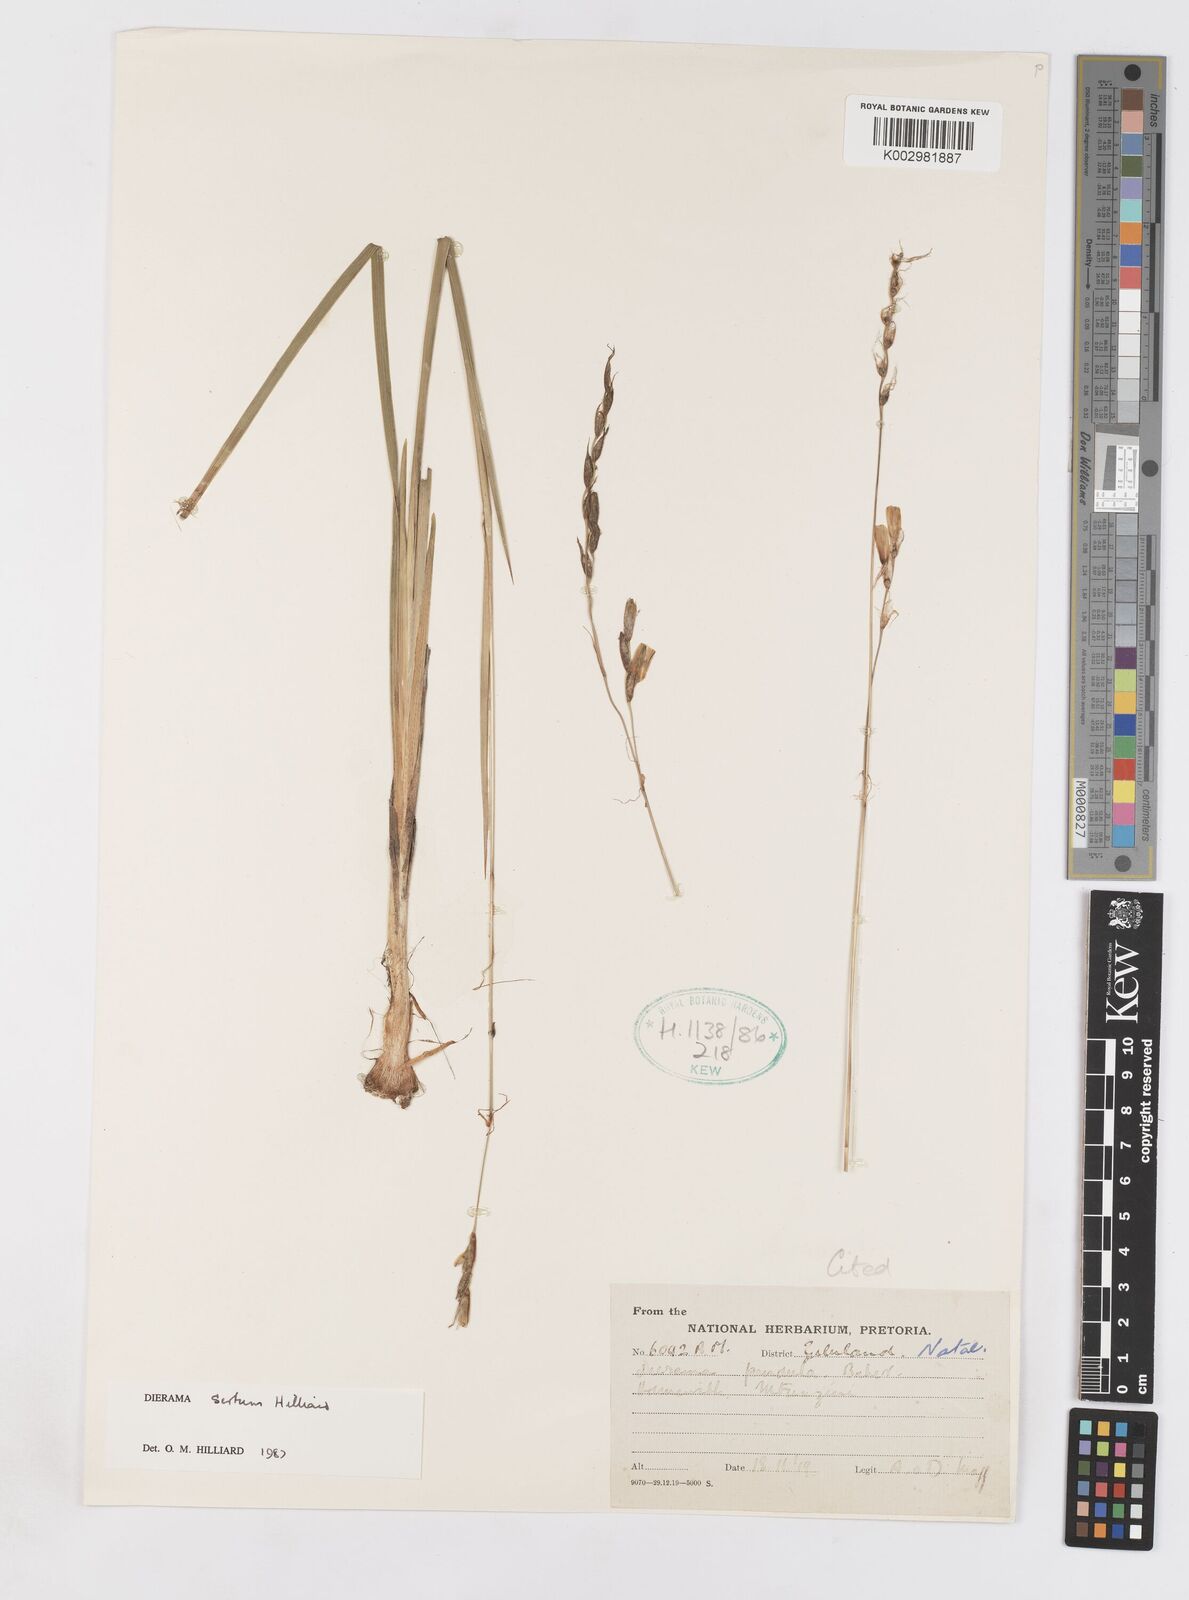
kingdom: Plantae
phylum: Tracheophyta
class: Liliopsida
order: Asparagales
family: Iridaceae
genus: Dierama
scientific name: Dierama sertum
